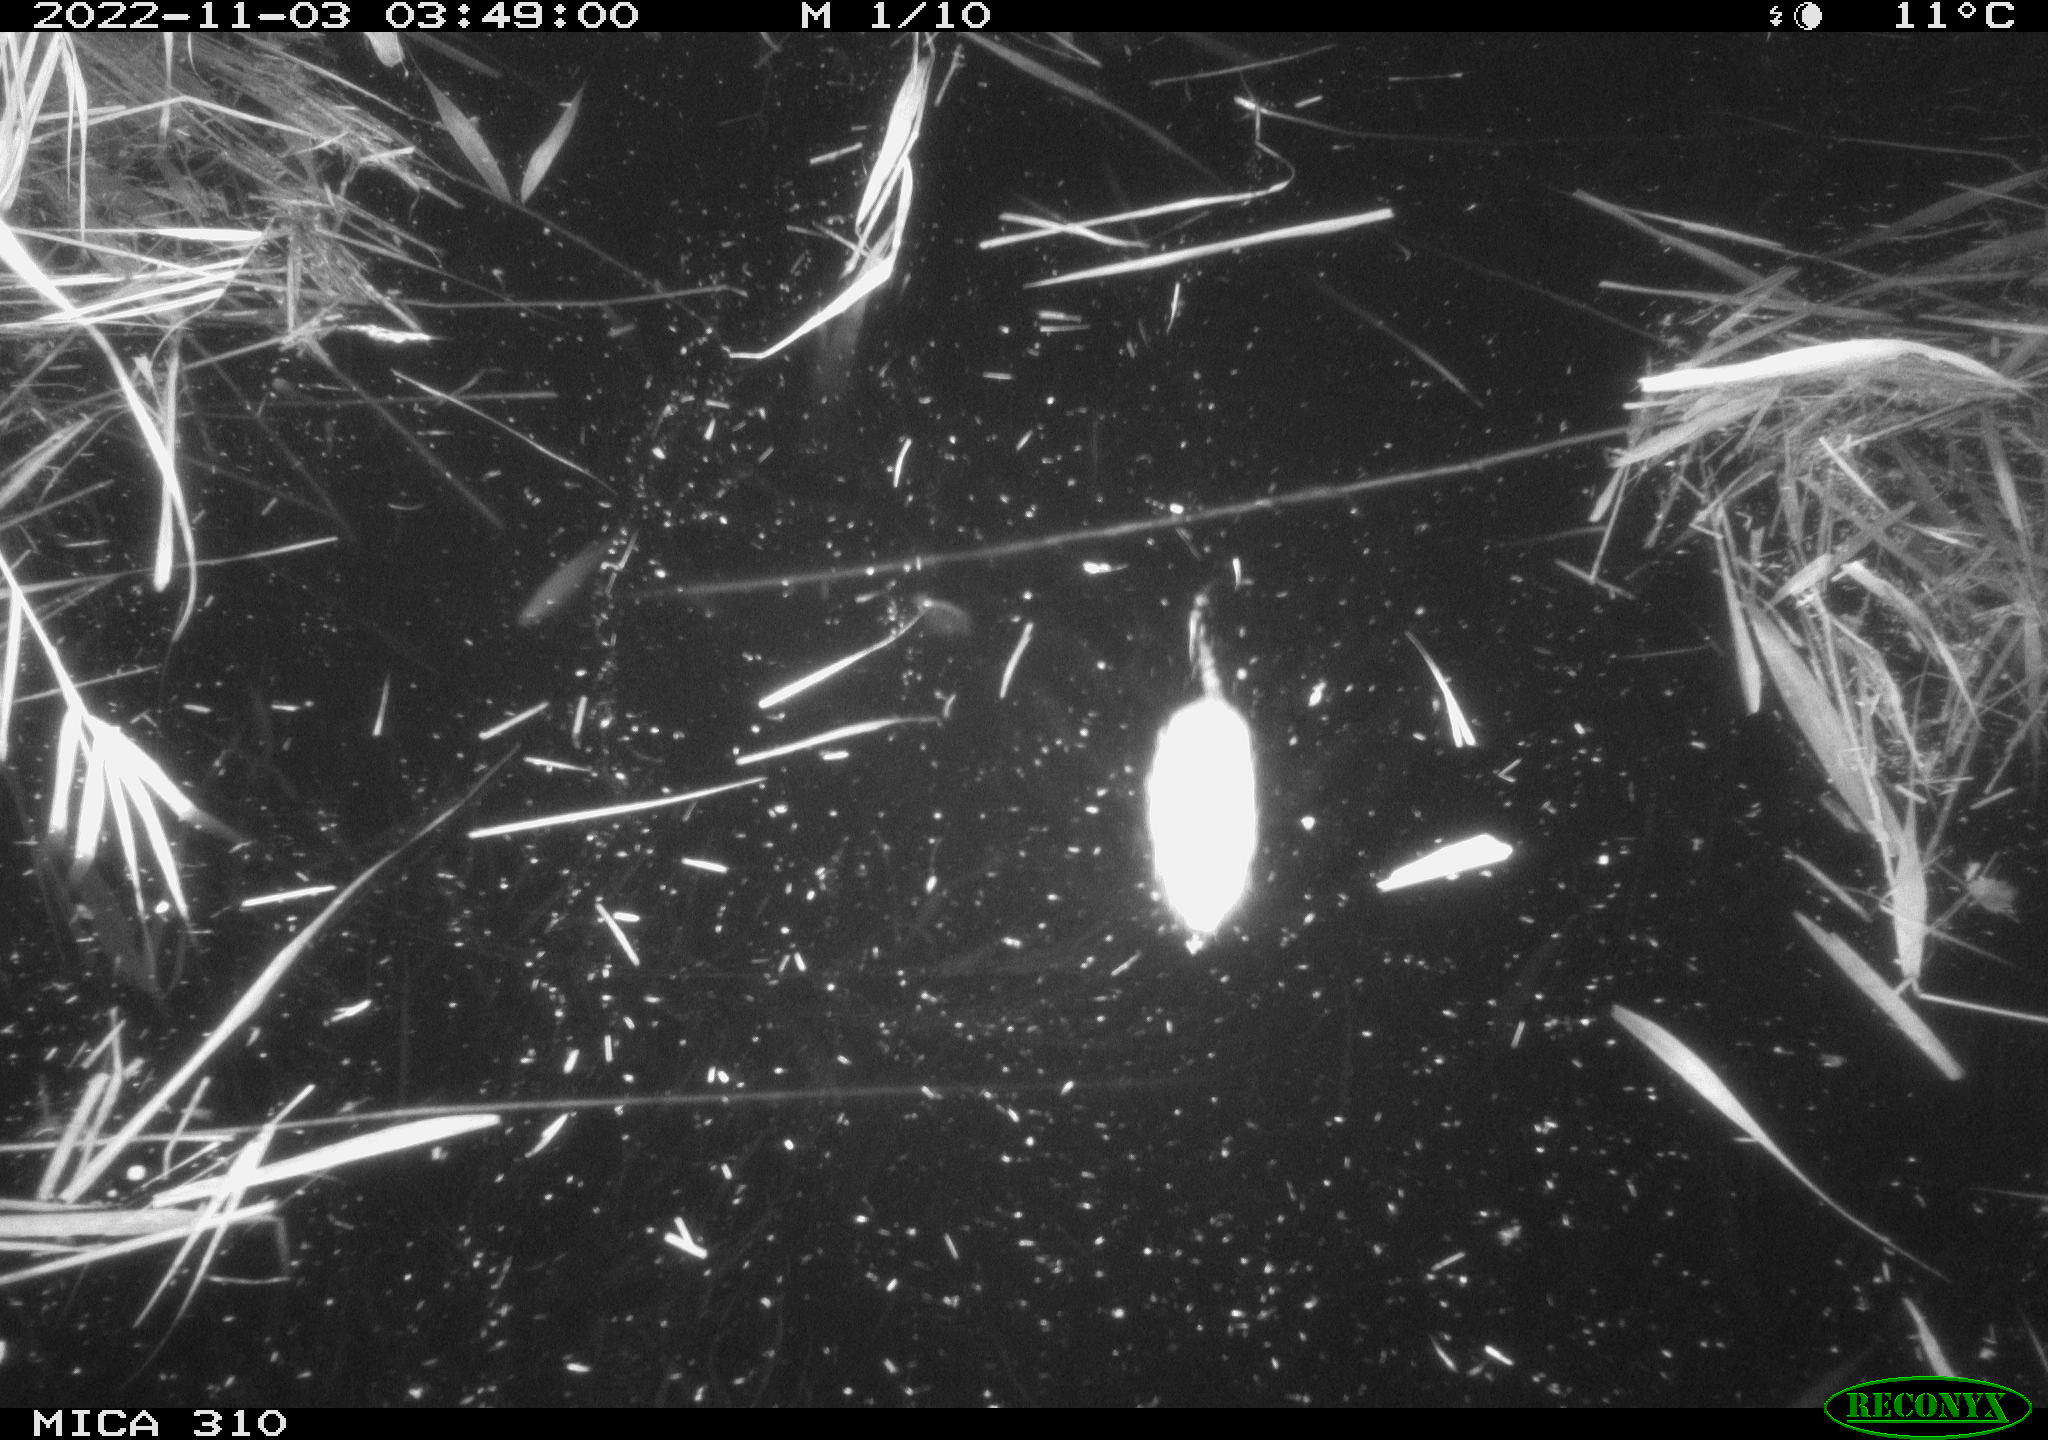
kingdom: Animalia
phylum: Chordata
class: Mammalia
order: Rodentia
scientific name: Rodentia
